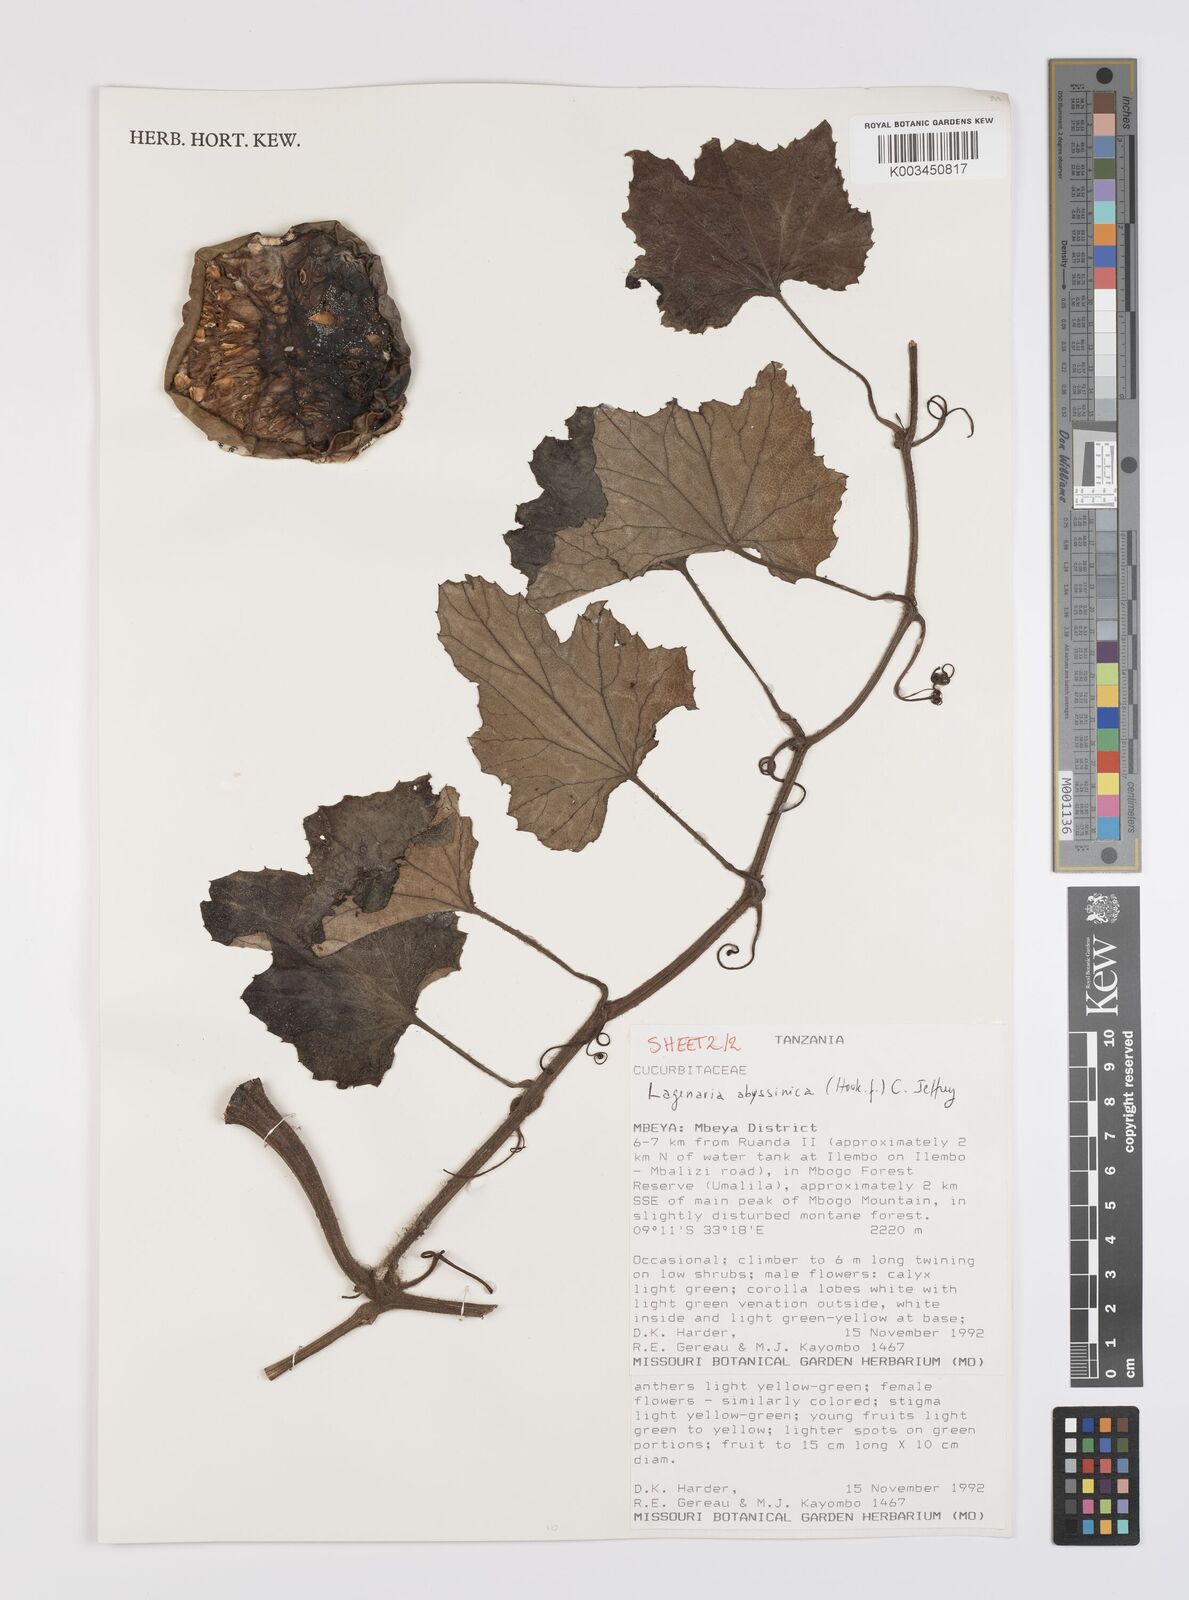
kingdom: Plantae
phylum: Tracheophyta
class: Magnoliopsida
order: Cucurbitales
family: Cucurbitaceae
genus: Lagenaria
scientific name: Lagenaria abyssinica
